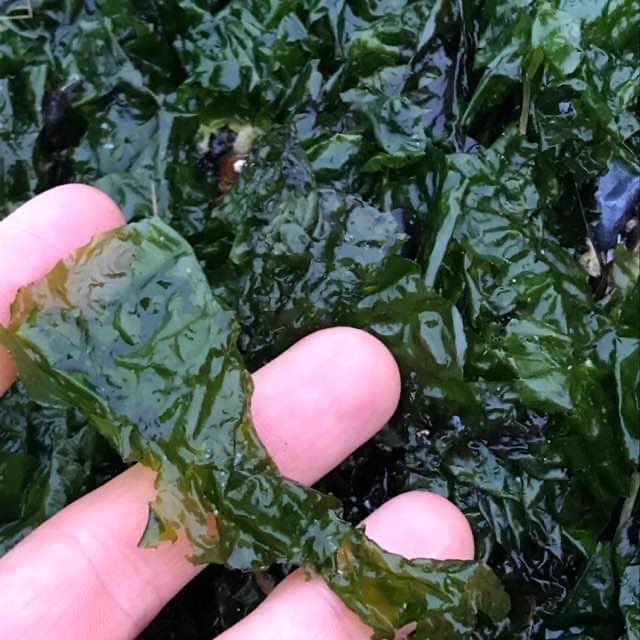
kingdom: Plantae
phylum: Chlorophyta
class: Ulvophyceae
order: Ulvales
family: Ulvaceae
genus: Ulva
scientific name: Ulva fenestrata
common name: Søsalat
